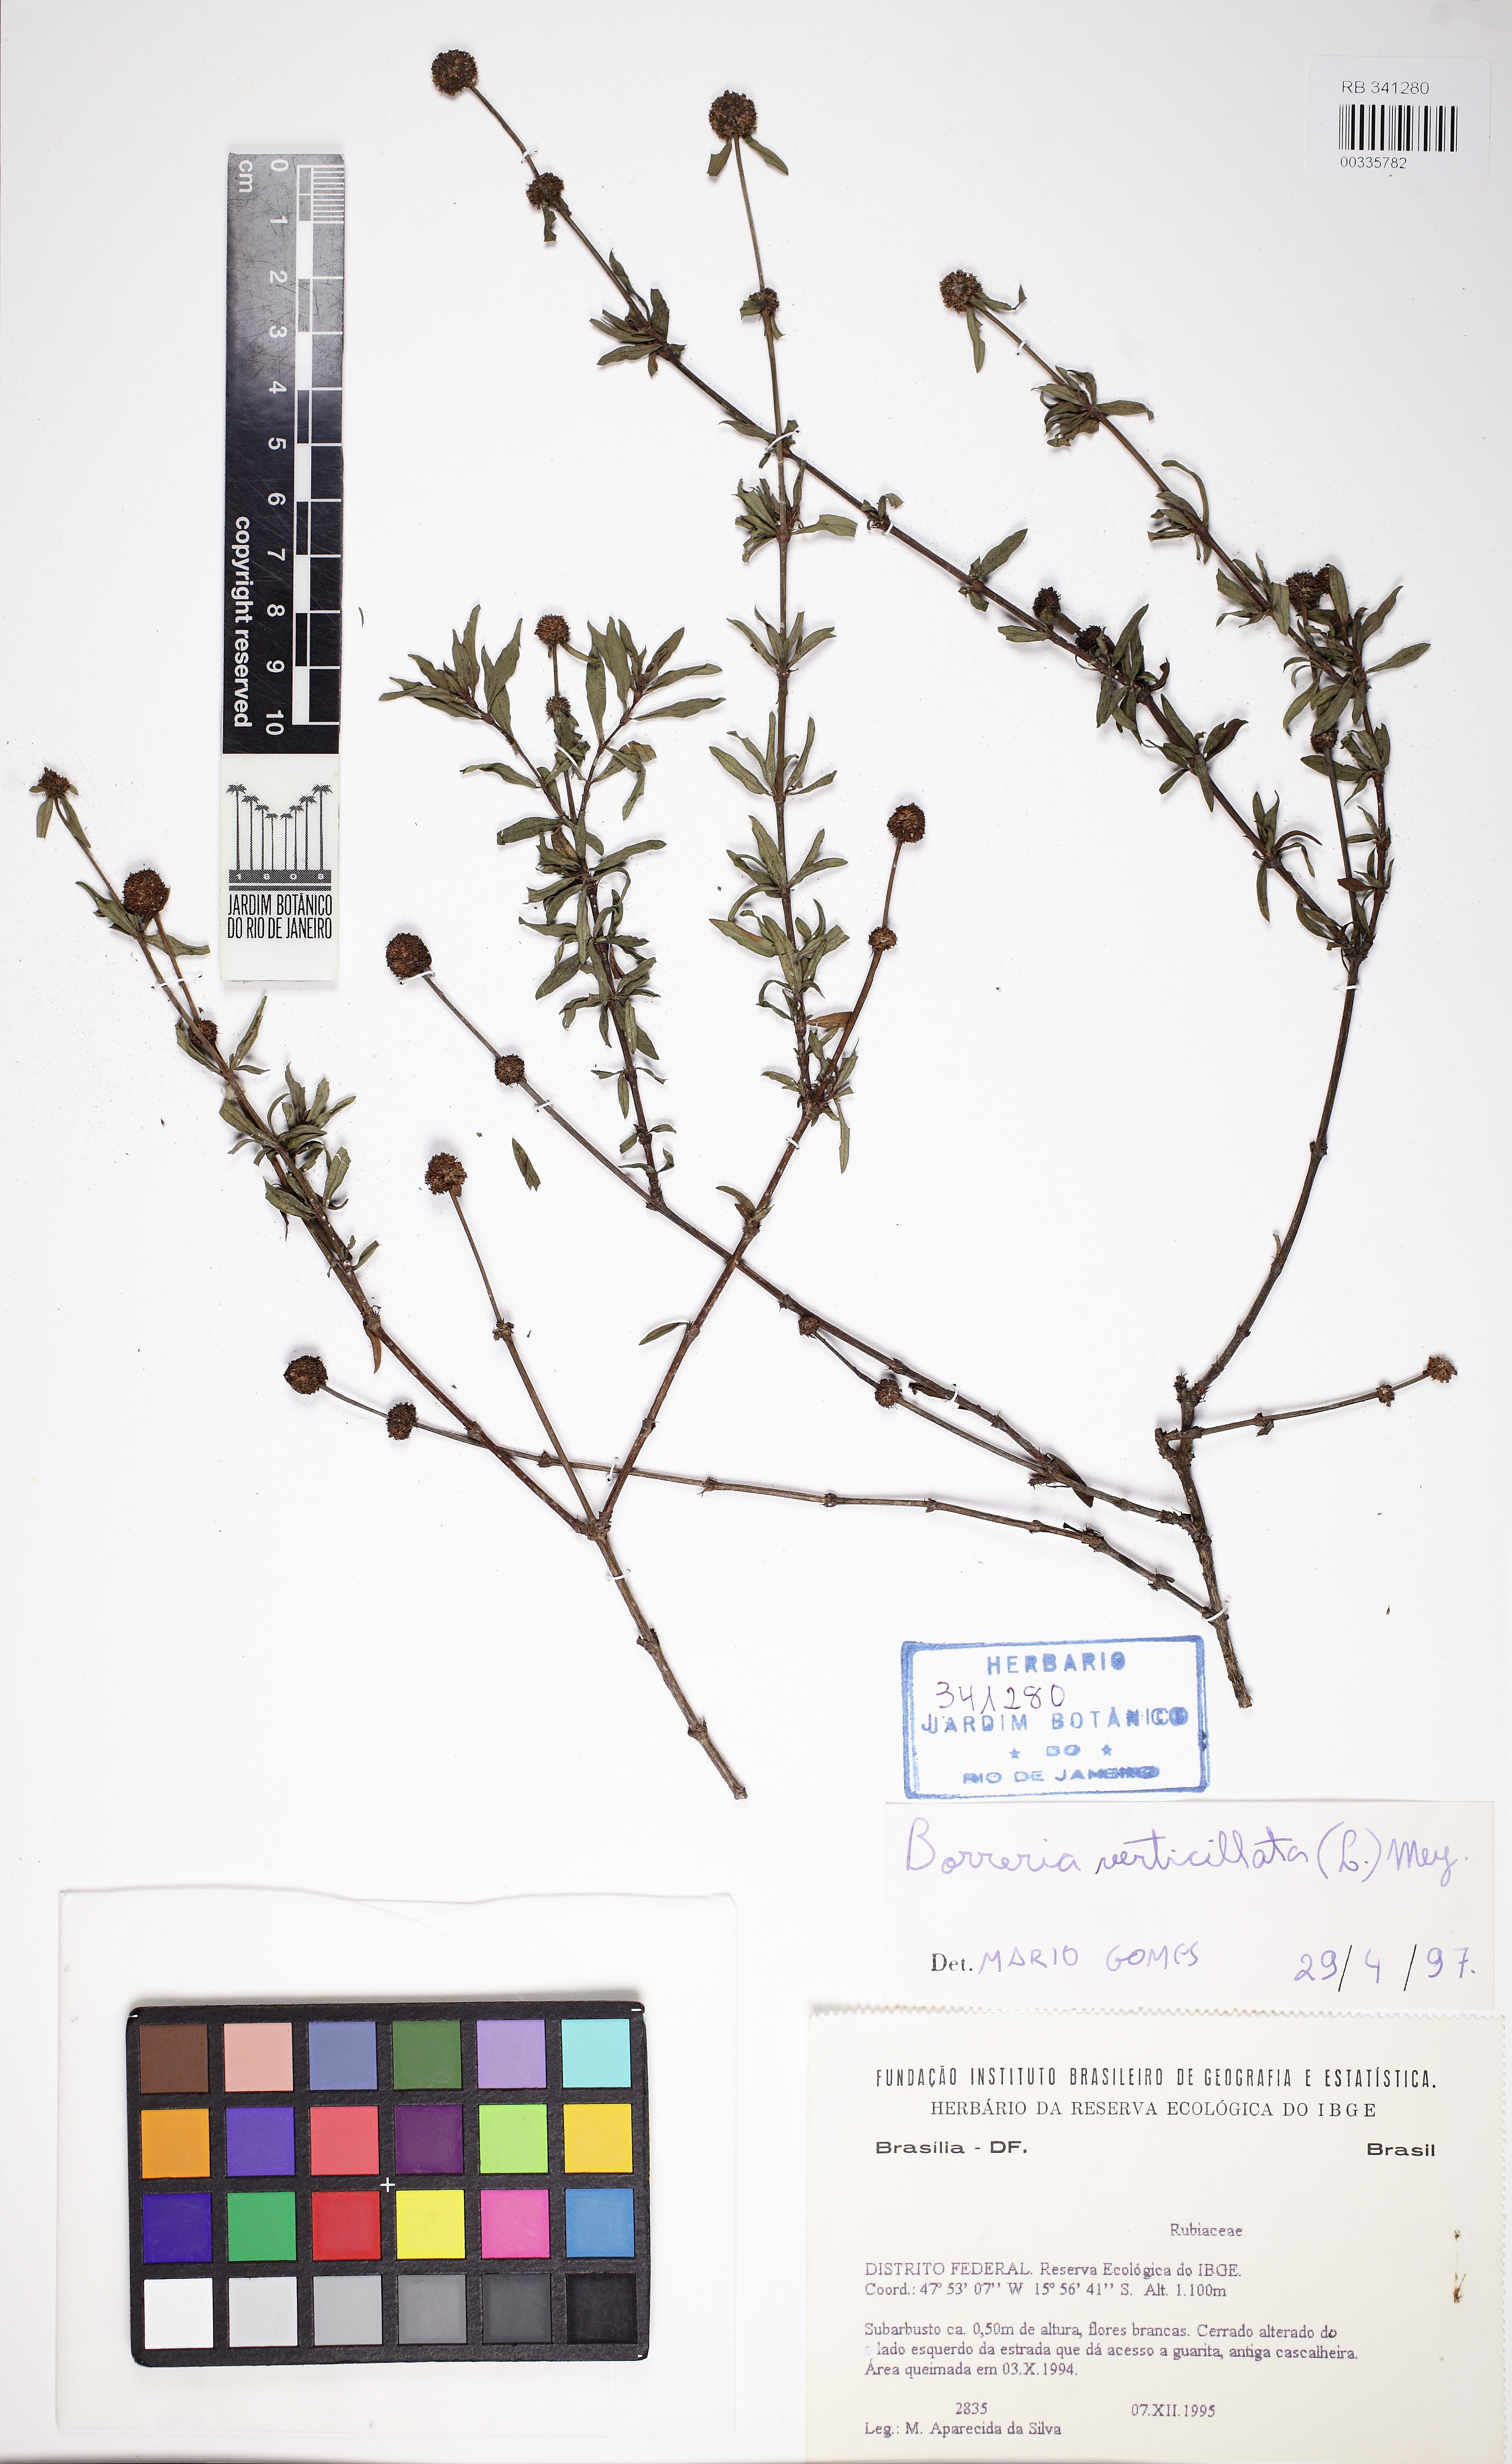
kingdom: Plantae
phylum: Tracheophyta
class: Magnoliopsida
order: Gentianales
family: Rubiaceae
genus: Spermacoce
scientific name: Spermacoce verticillata
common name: Shrubby false buttonweed
